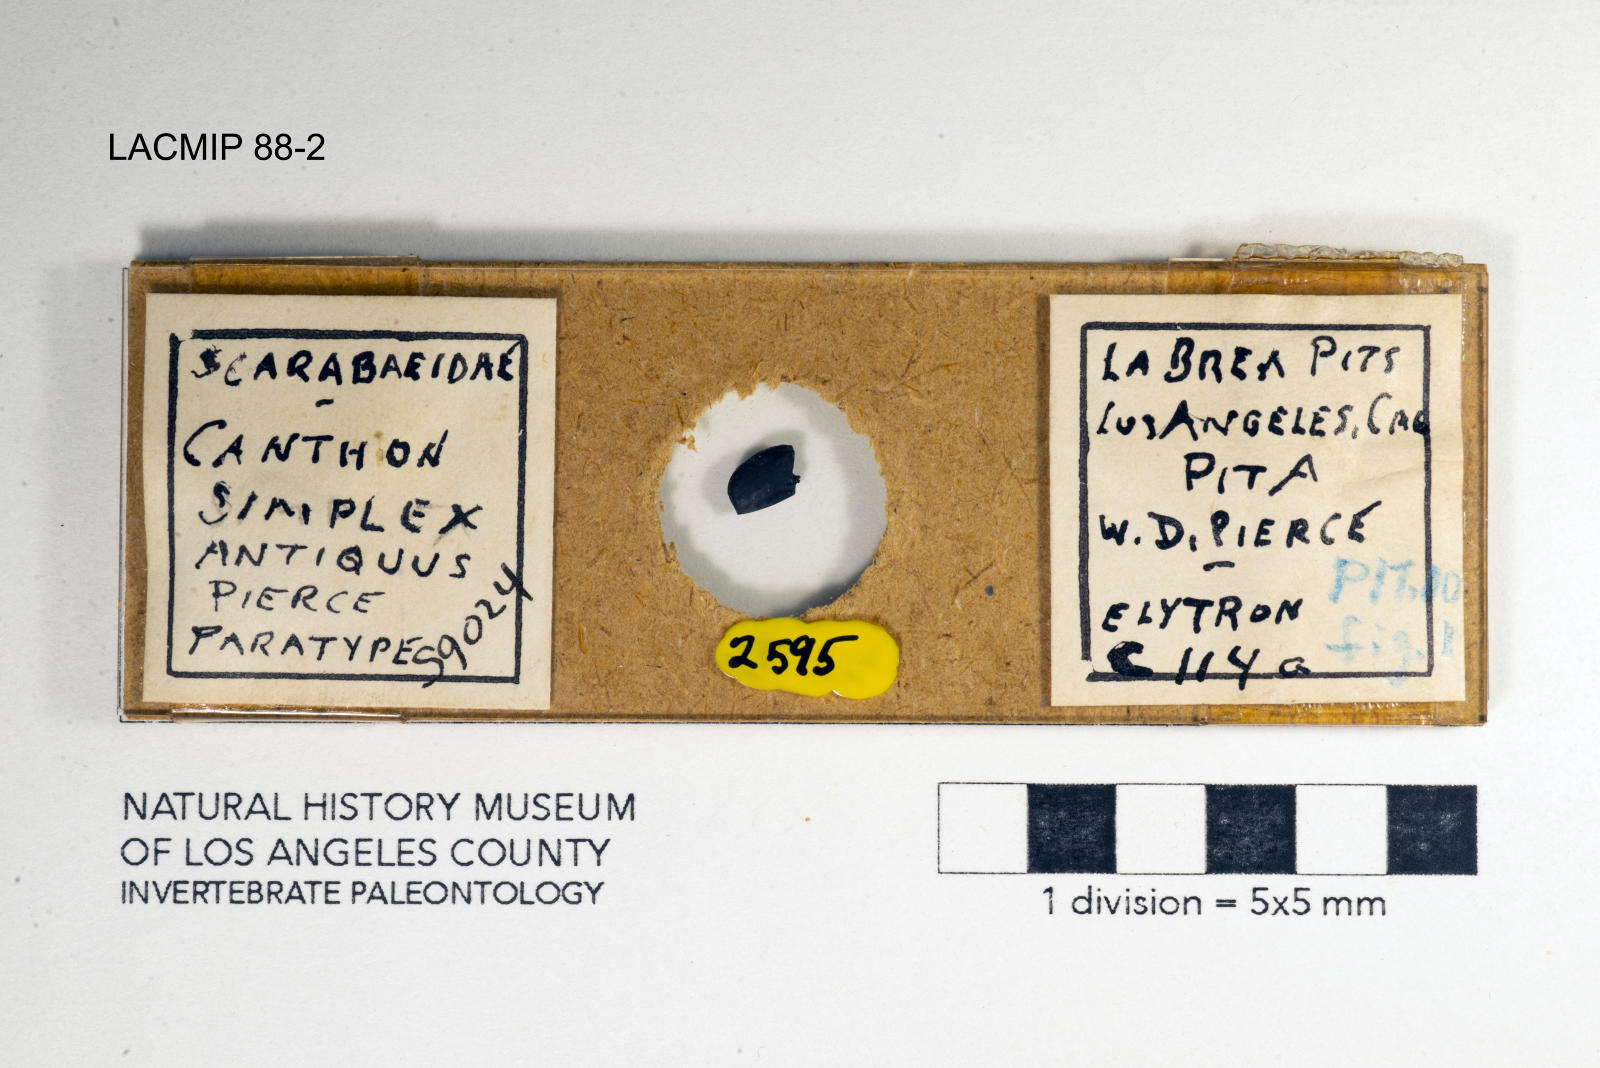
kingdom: Animalia
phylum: Arthropoda
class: Insecta
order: Coleoptera
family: Scarabaeidae
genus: Canthon
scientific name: Canthon simplex
